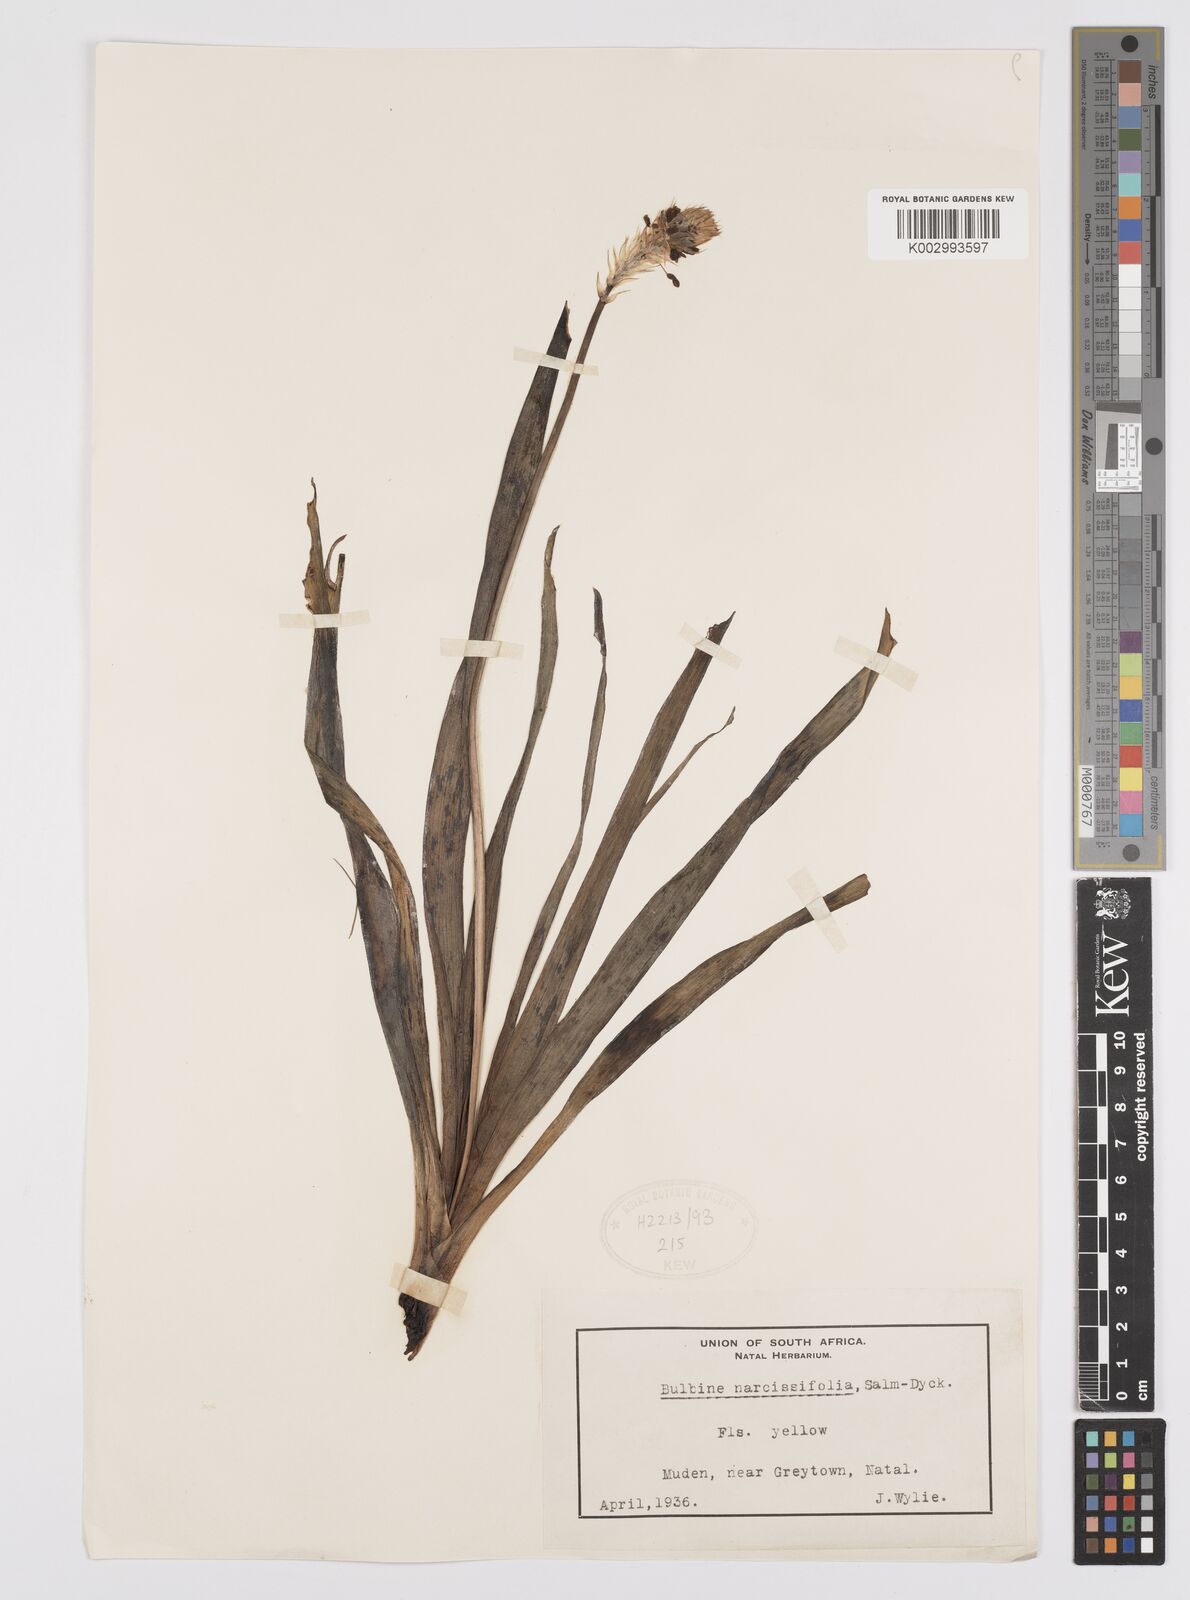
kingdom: Plantae
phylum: Tracheophyta
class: Liliopsida
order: Asparagales
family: Asphodelaceae
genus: Bulbine
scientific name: Bulbine narcissifolia
